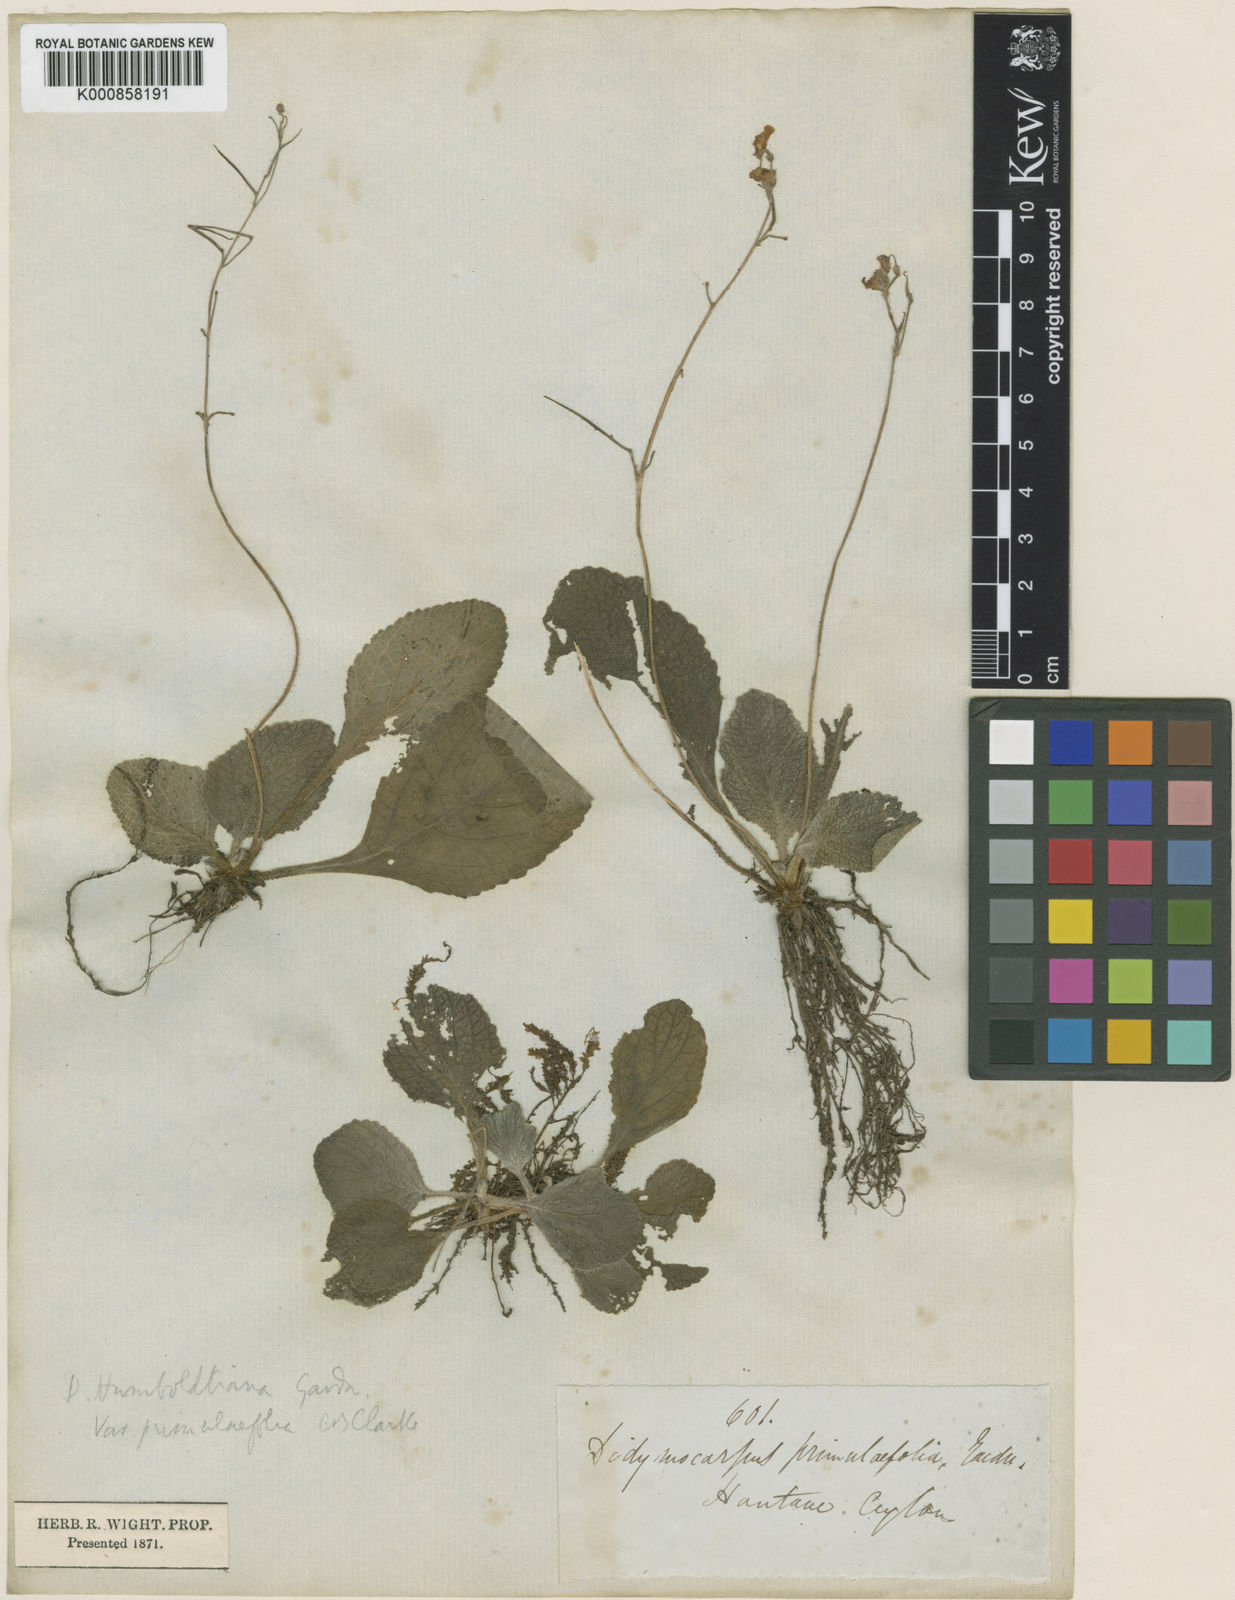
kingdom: Plantae
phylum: Tracheophyta
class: Magnoliopsida
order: Lamiales
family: Gesneriaceae
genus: Henckelia
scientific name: Henckelia humboldtiana
